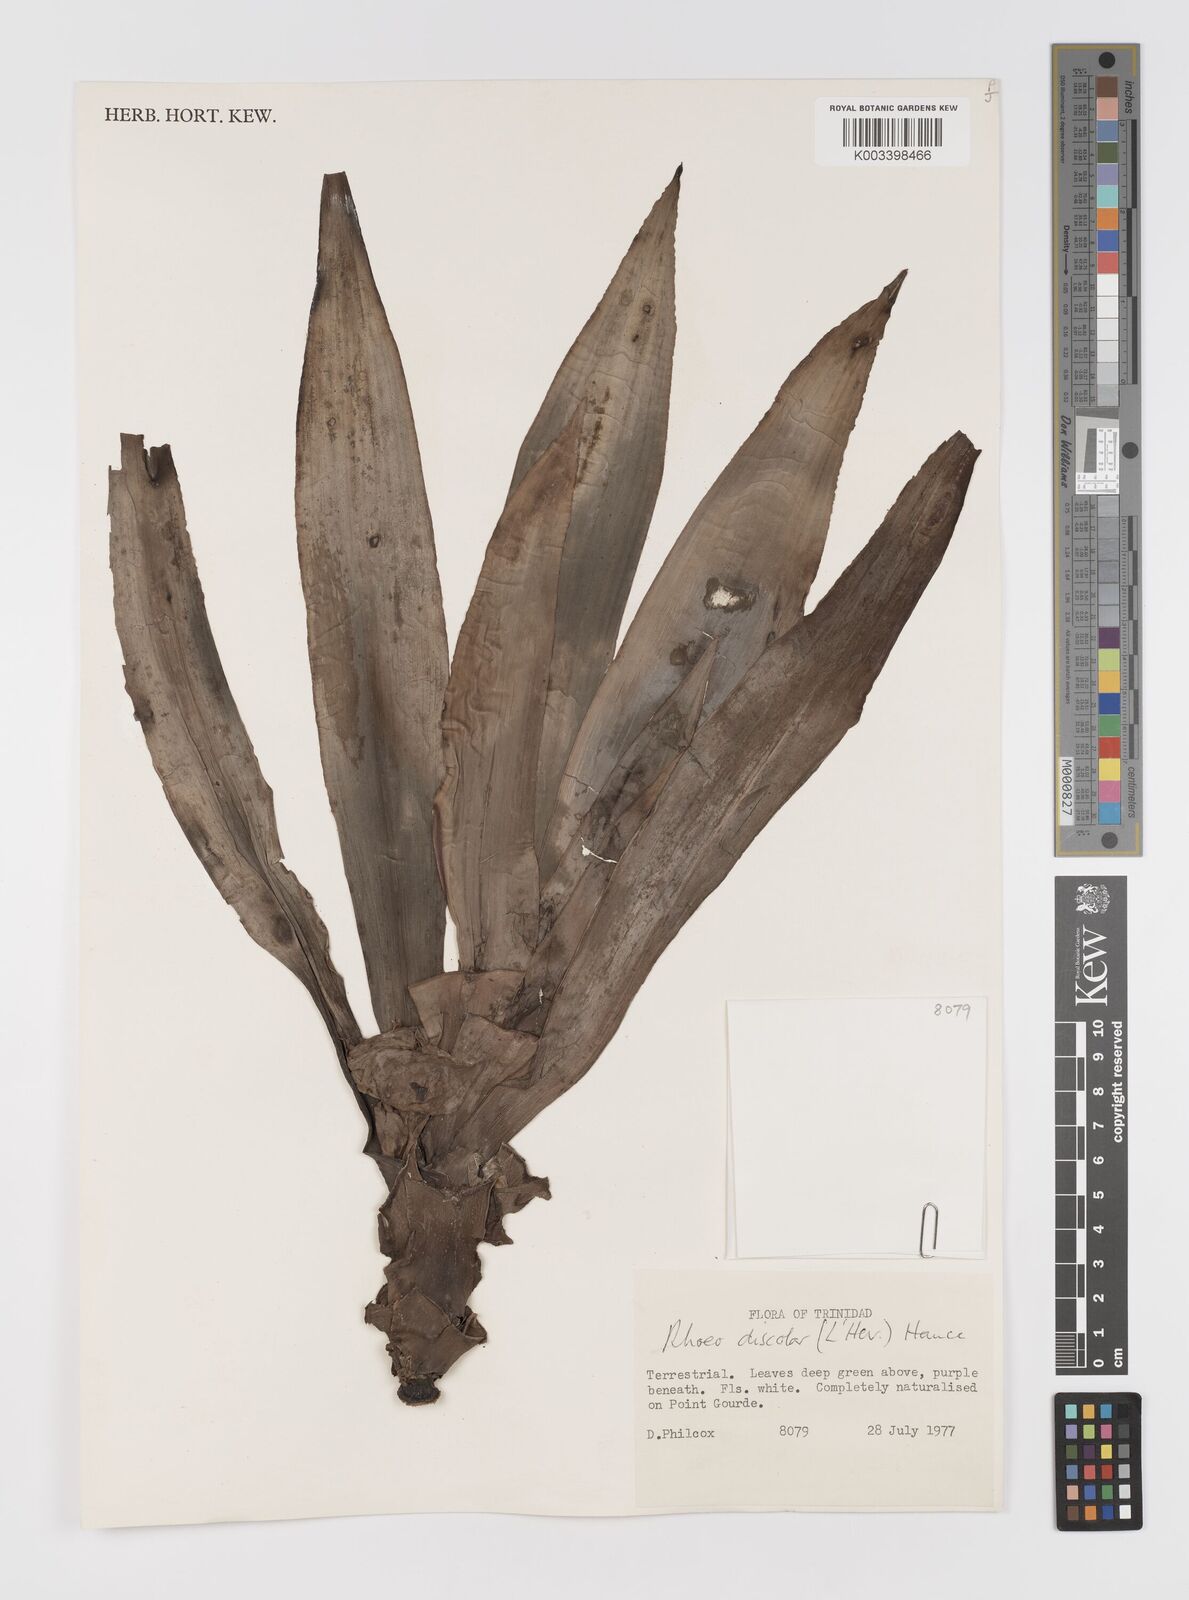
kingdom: Plantae
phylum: Tracheophyta
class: Liliopsida
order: Commelinales
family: Commelinaceae
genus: Tradescantia
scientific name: Tradescantia spathacea
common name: Boatlily
